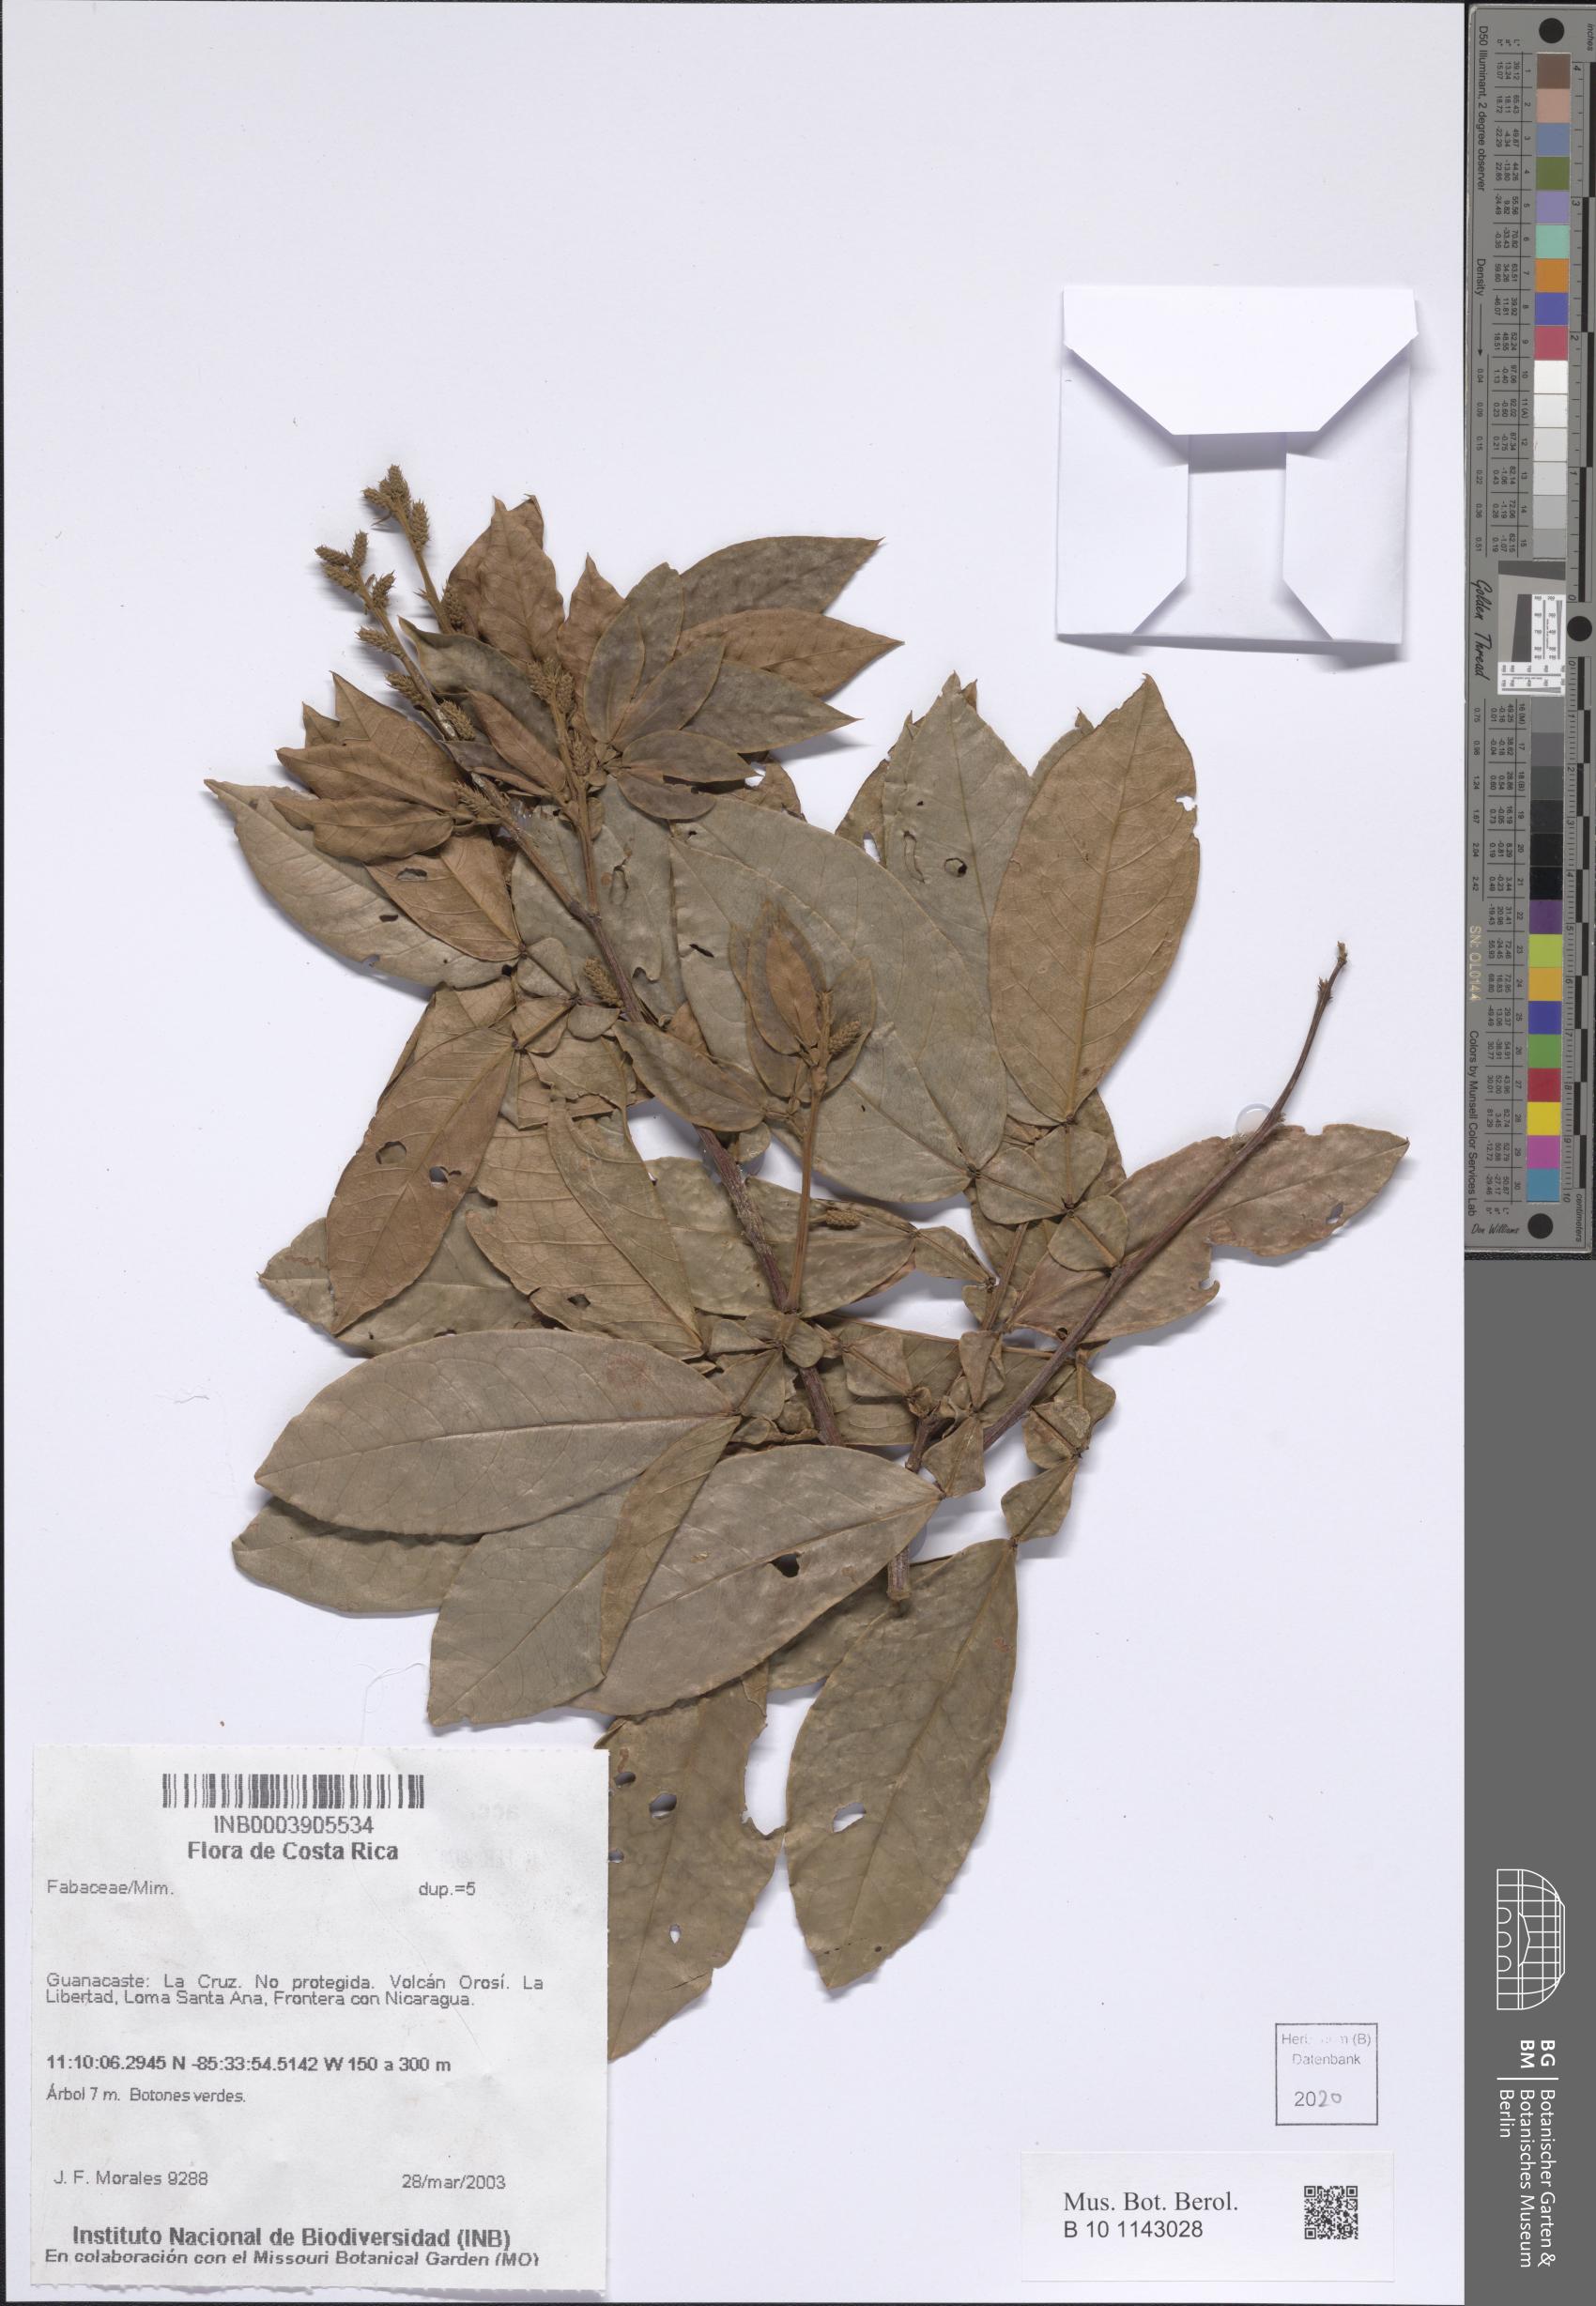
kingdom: Plantae
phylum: Tracheophyta
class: Magnoliopsida
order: Fabales
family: Fabaceae
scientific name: Fabaceae
